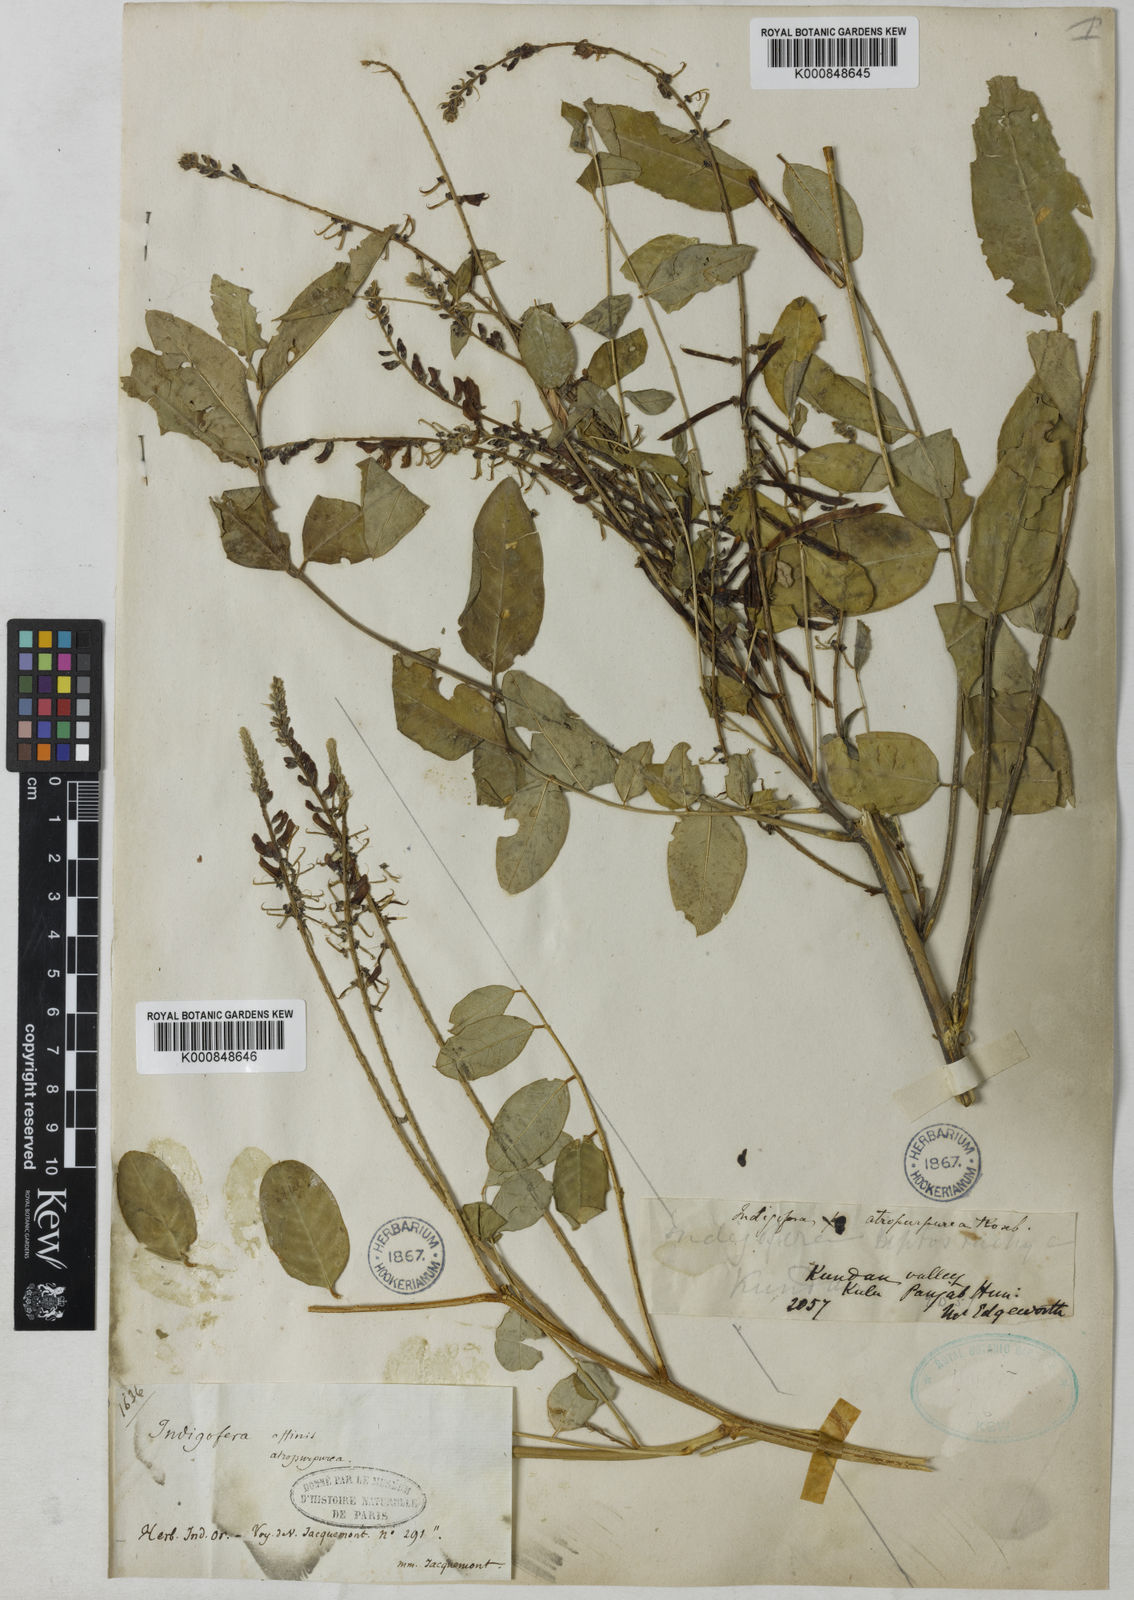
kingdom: Plantae
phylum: Tracheophyta
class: Magnoliopsida
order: Fabales
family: Fabaceae
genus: Indigofera
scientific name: Indigofera
